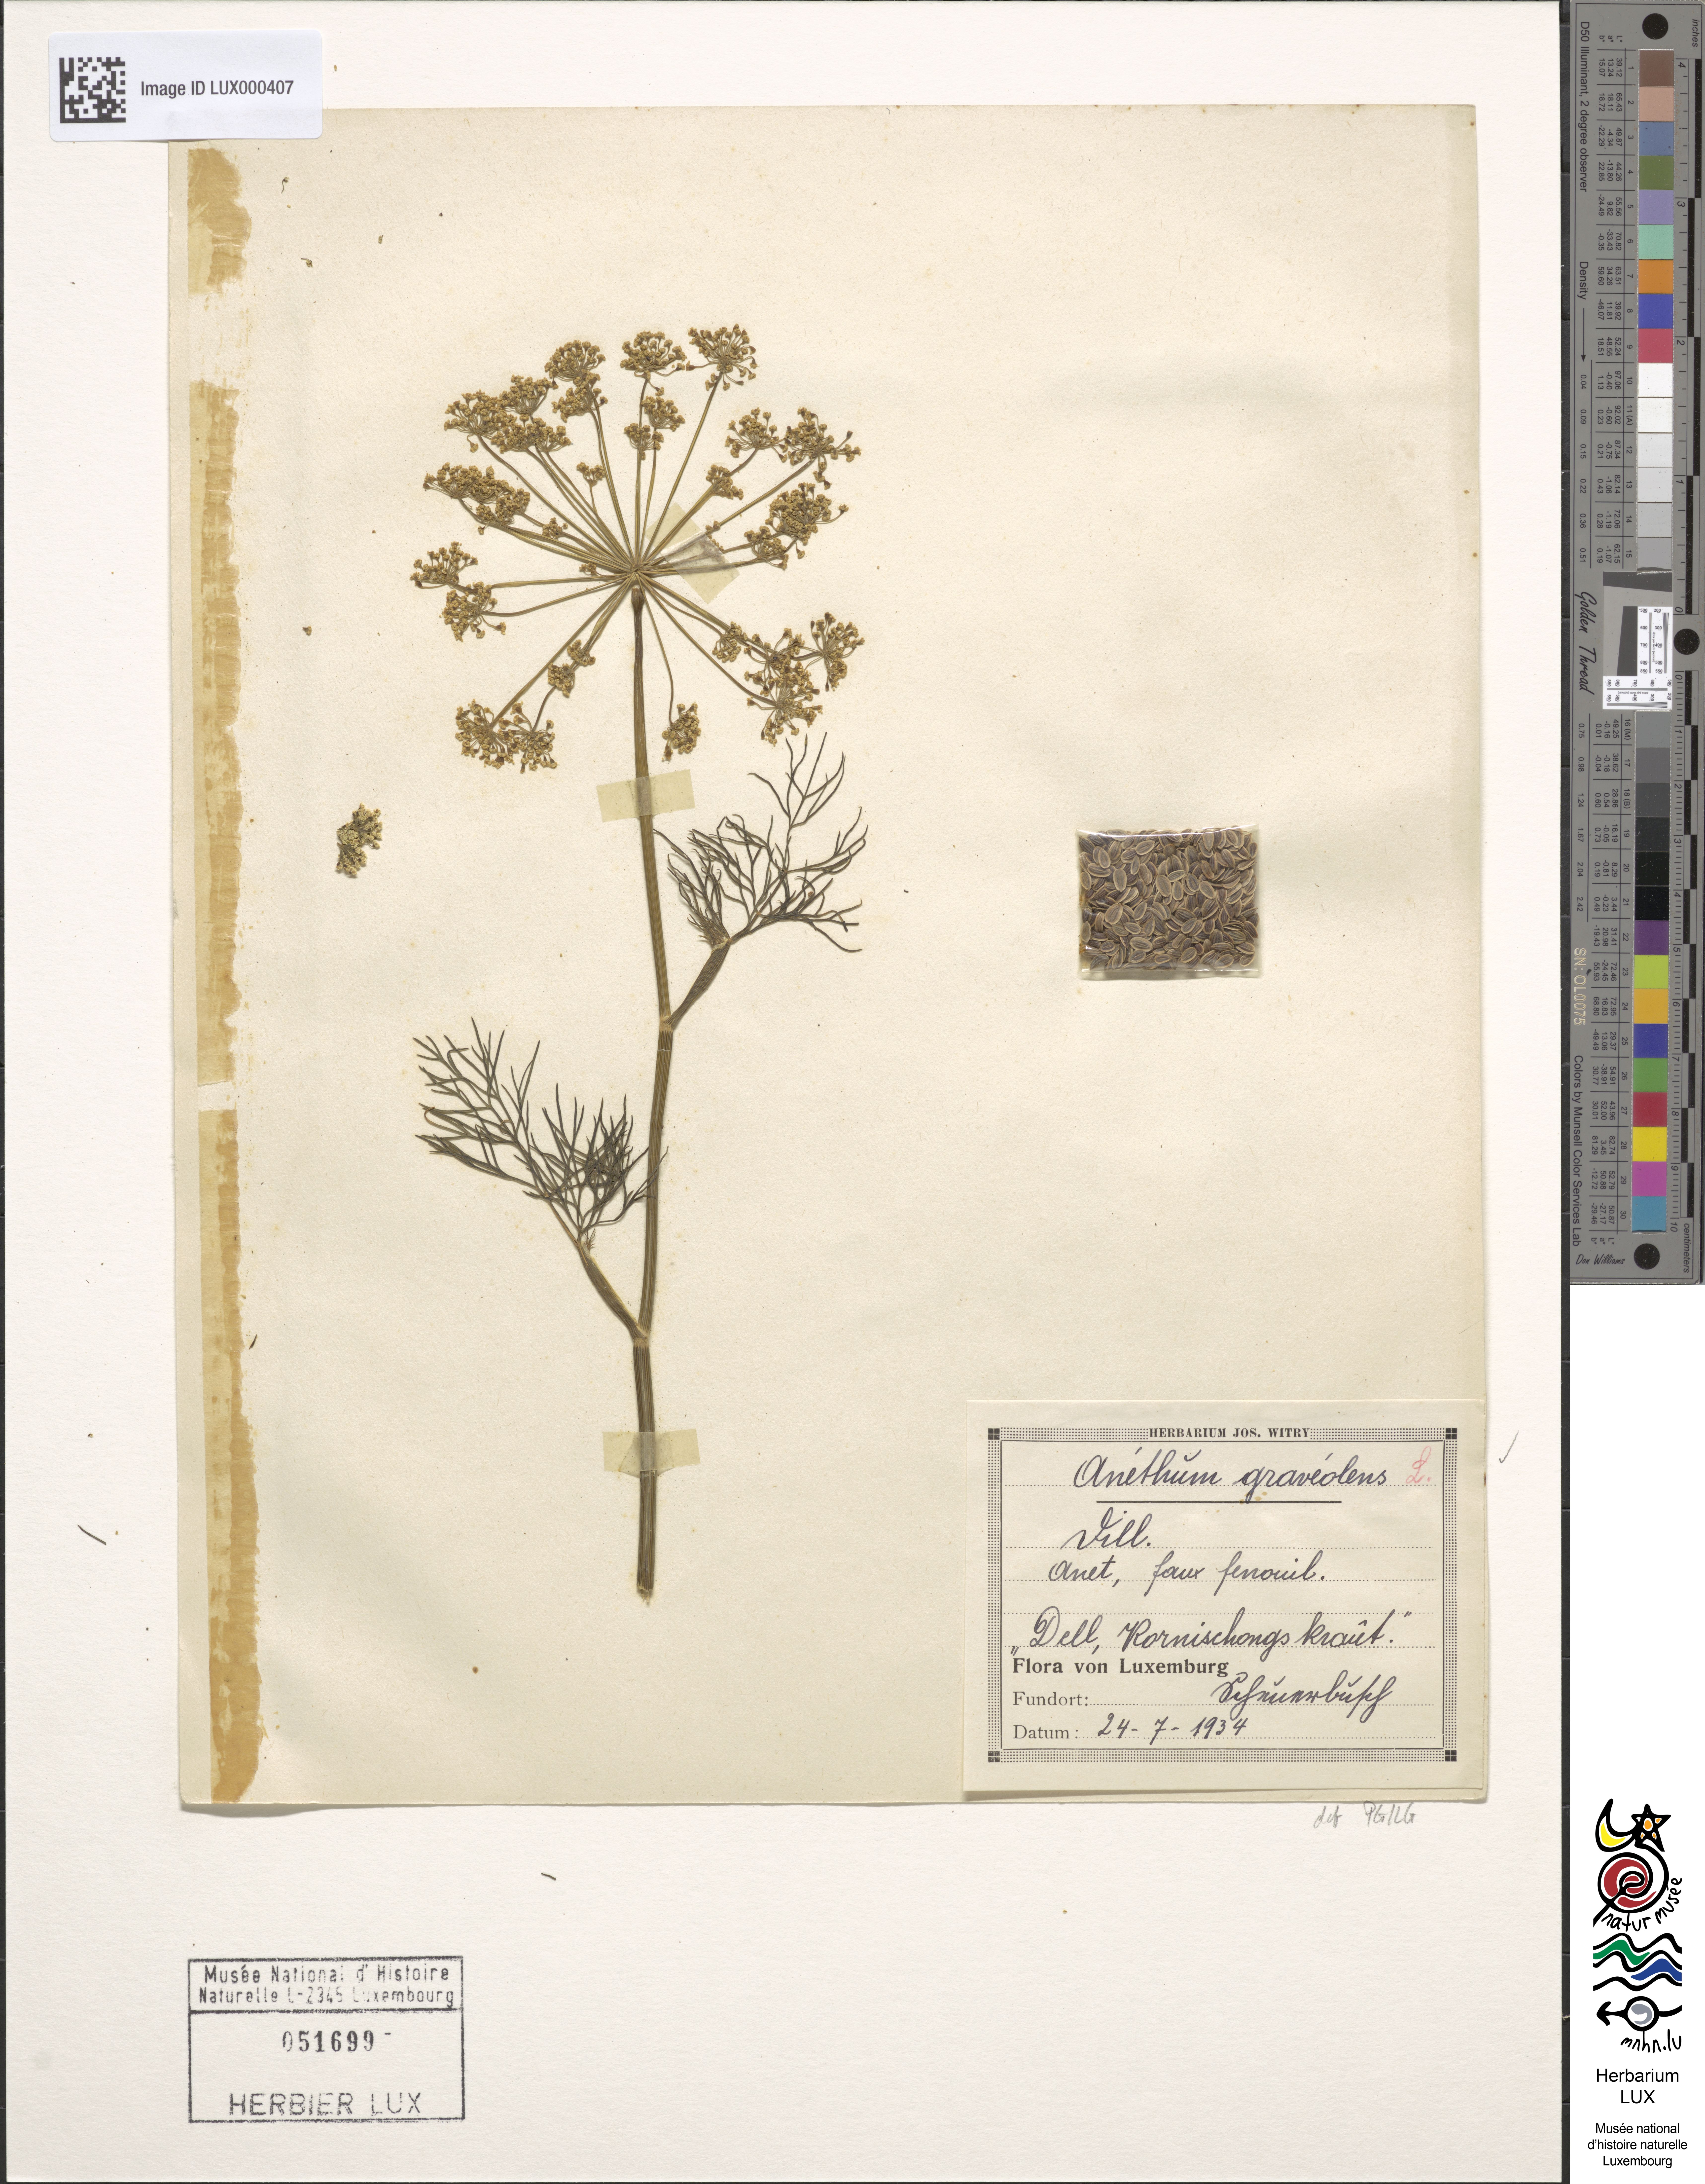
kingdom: Plantae
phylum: Tracheophyta
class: Magnoliopsida
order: Apiales
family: Apiaceae
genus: Anethum
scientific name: Anethum graveolens
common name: Dill
